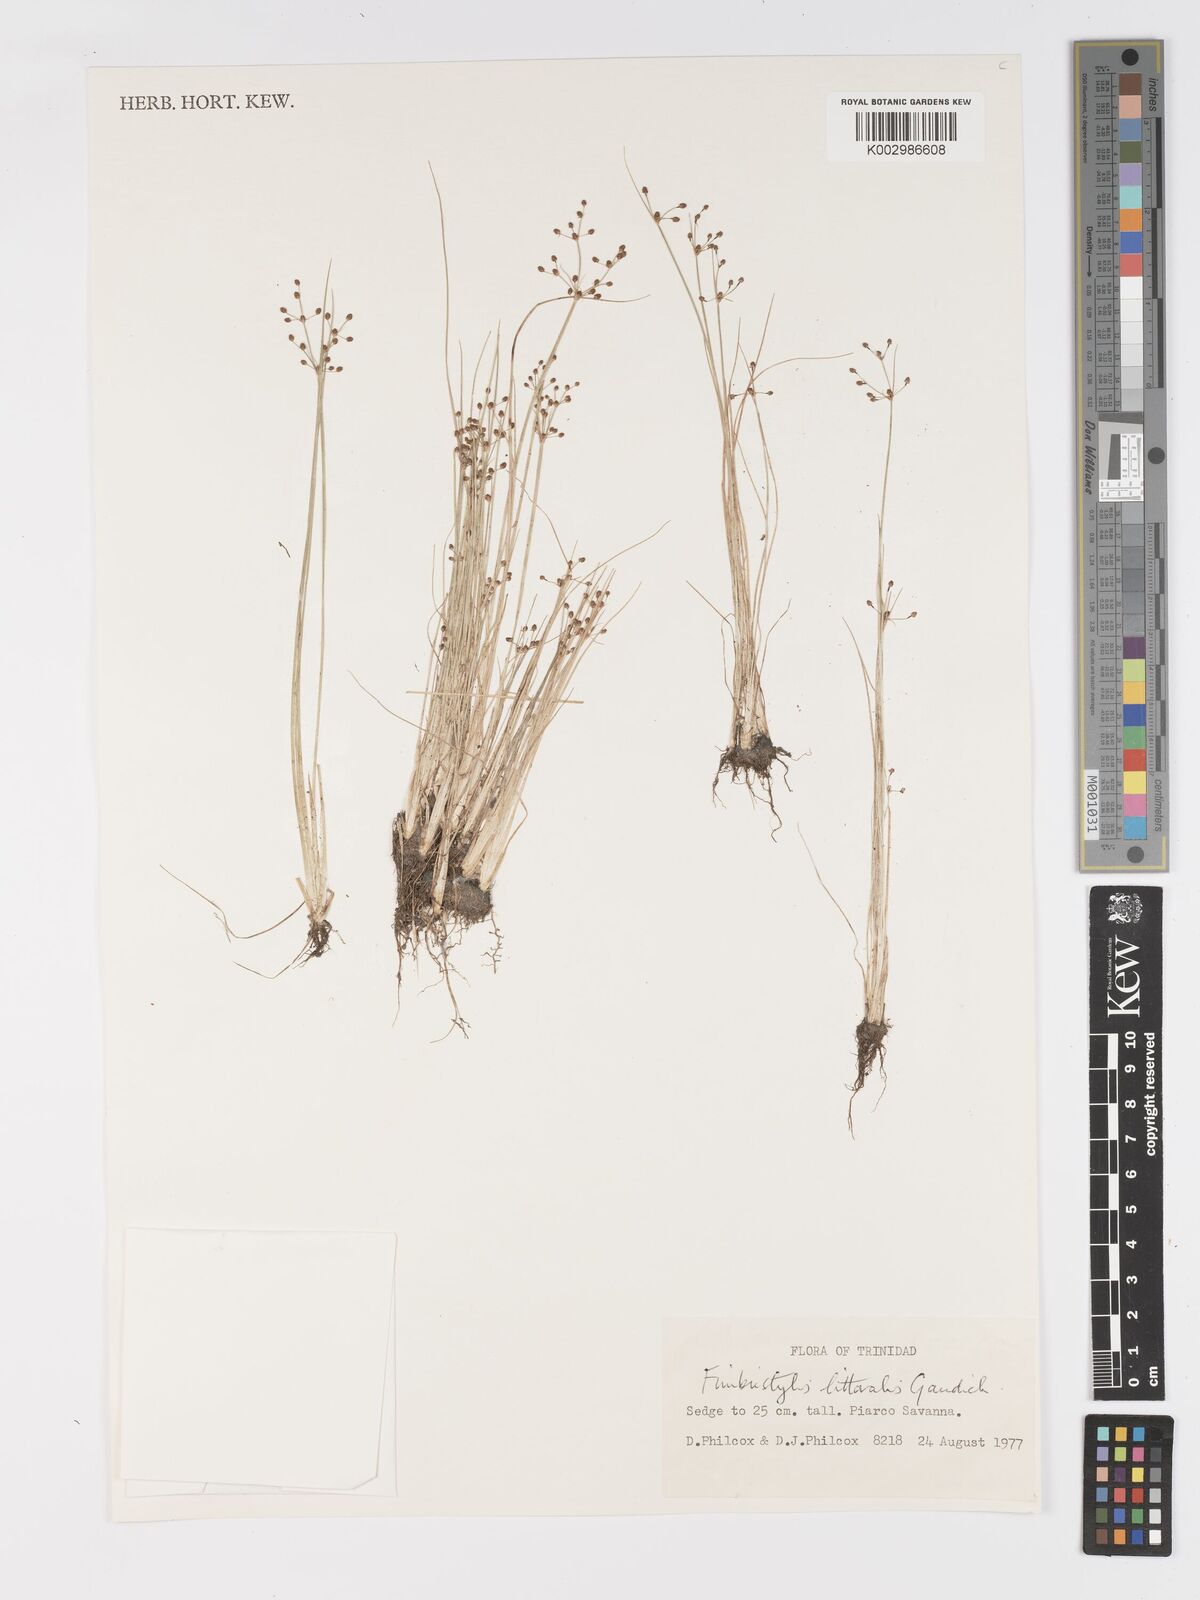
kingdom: Plantae
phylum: Tracheophyta
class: Liliopsida
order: Poales
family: Cyperaceae
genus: Fimbristylis
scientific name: Fimbristylis littoralis
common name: Fimbry
